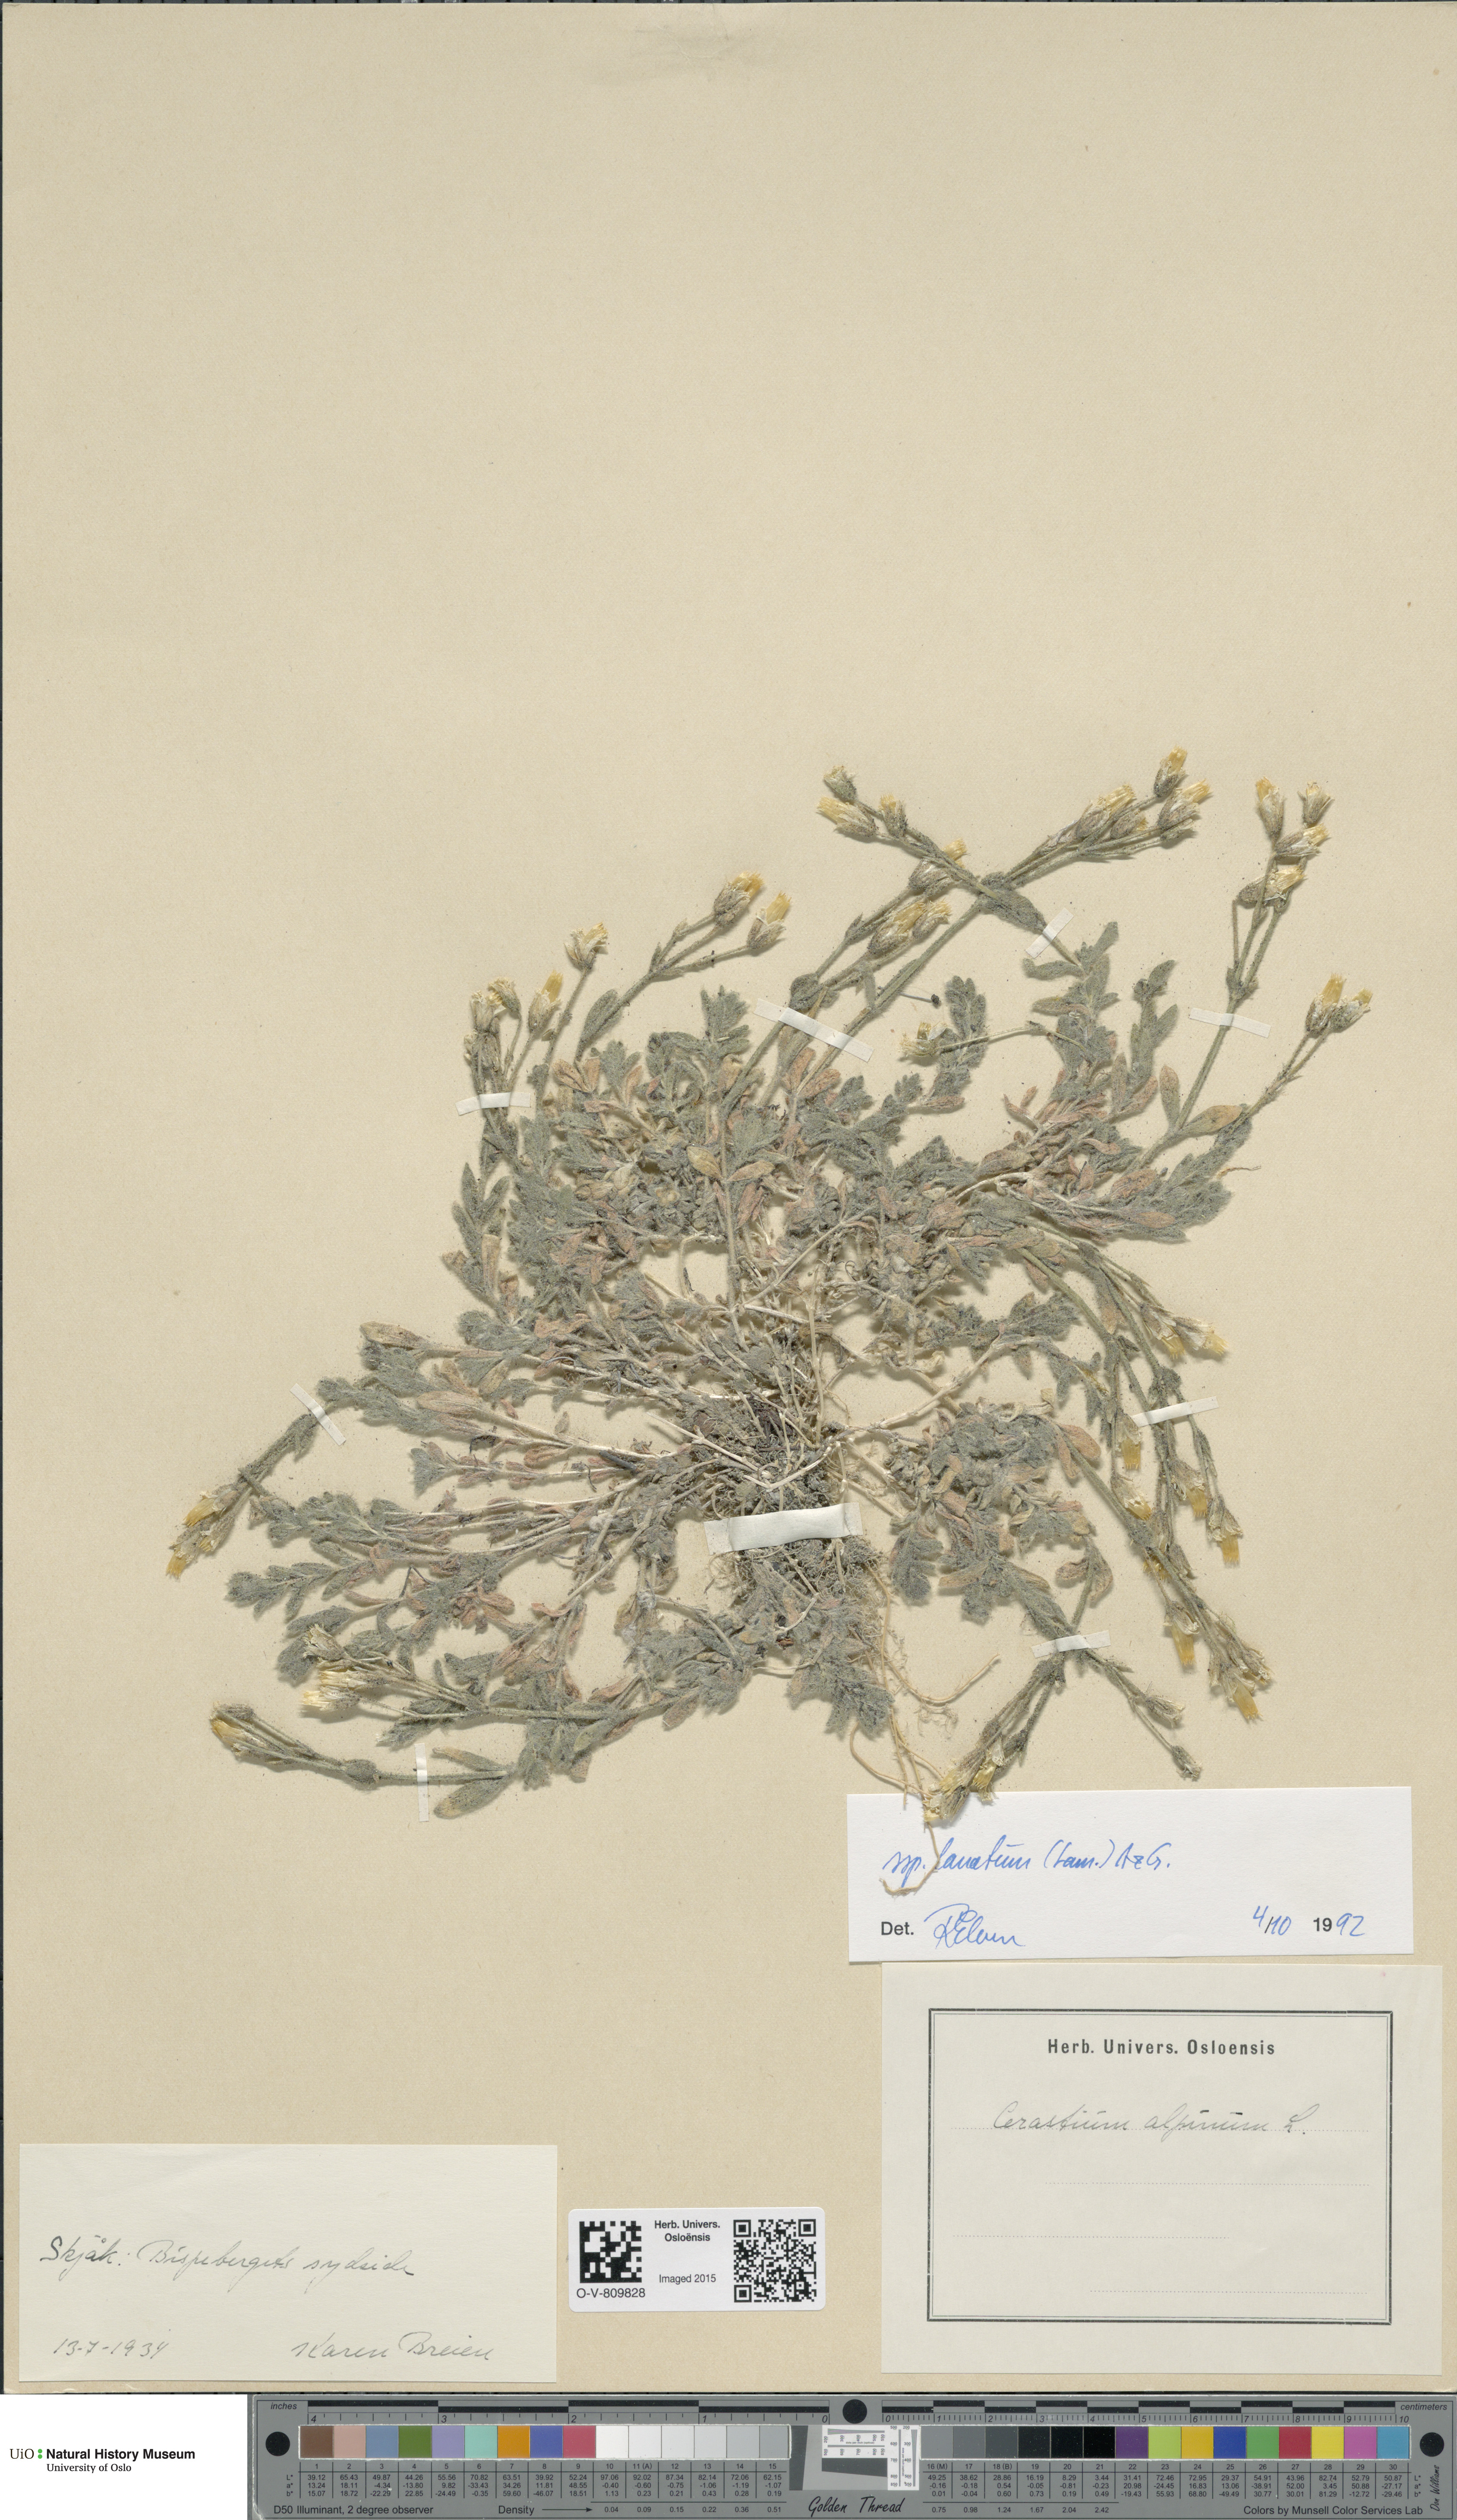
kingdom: Plantae
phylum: Tracheophyta
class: Magnoliopsida
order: Caryophyllales
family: Caryophyllaceae
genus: Cerastium
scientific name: Cerastium alpinum
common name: Alpine mouse-ear
